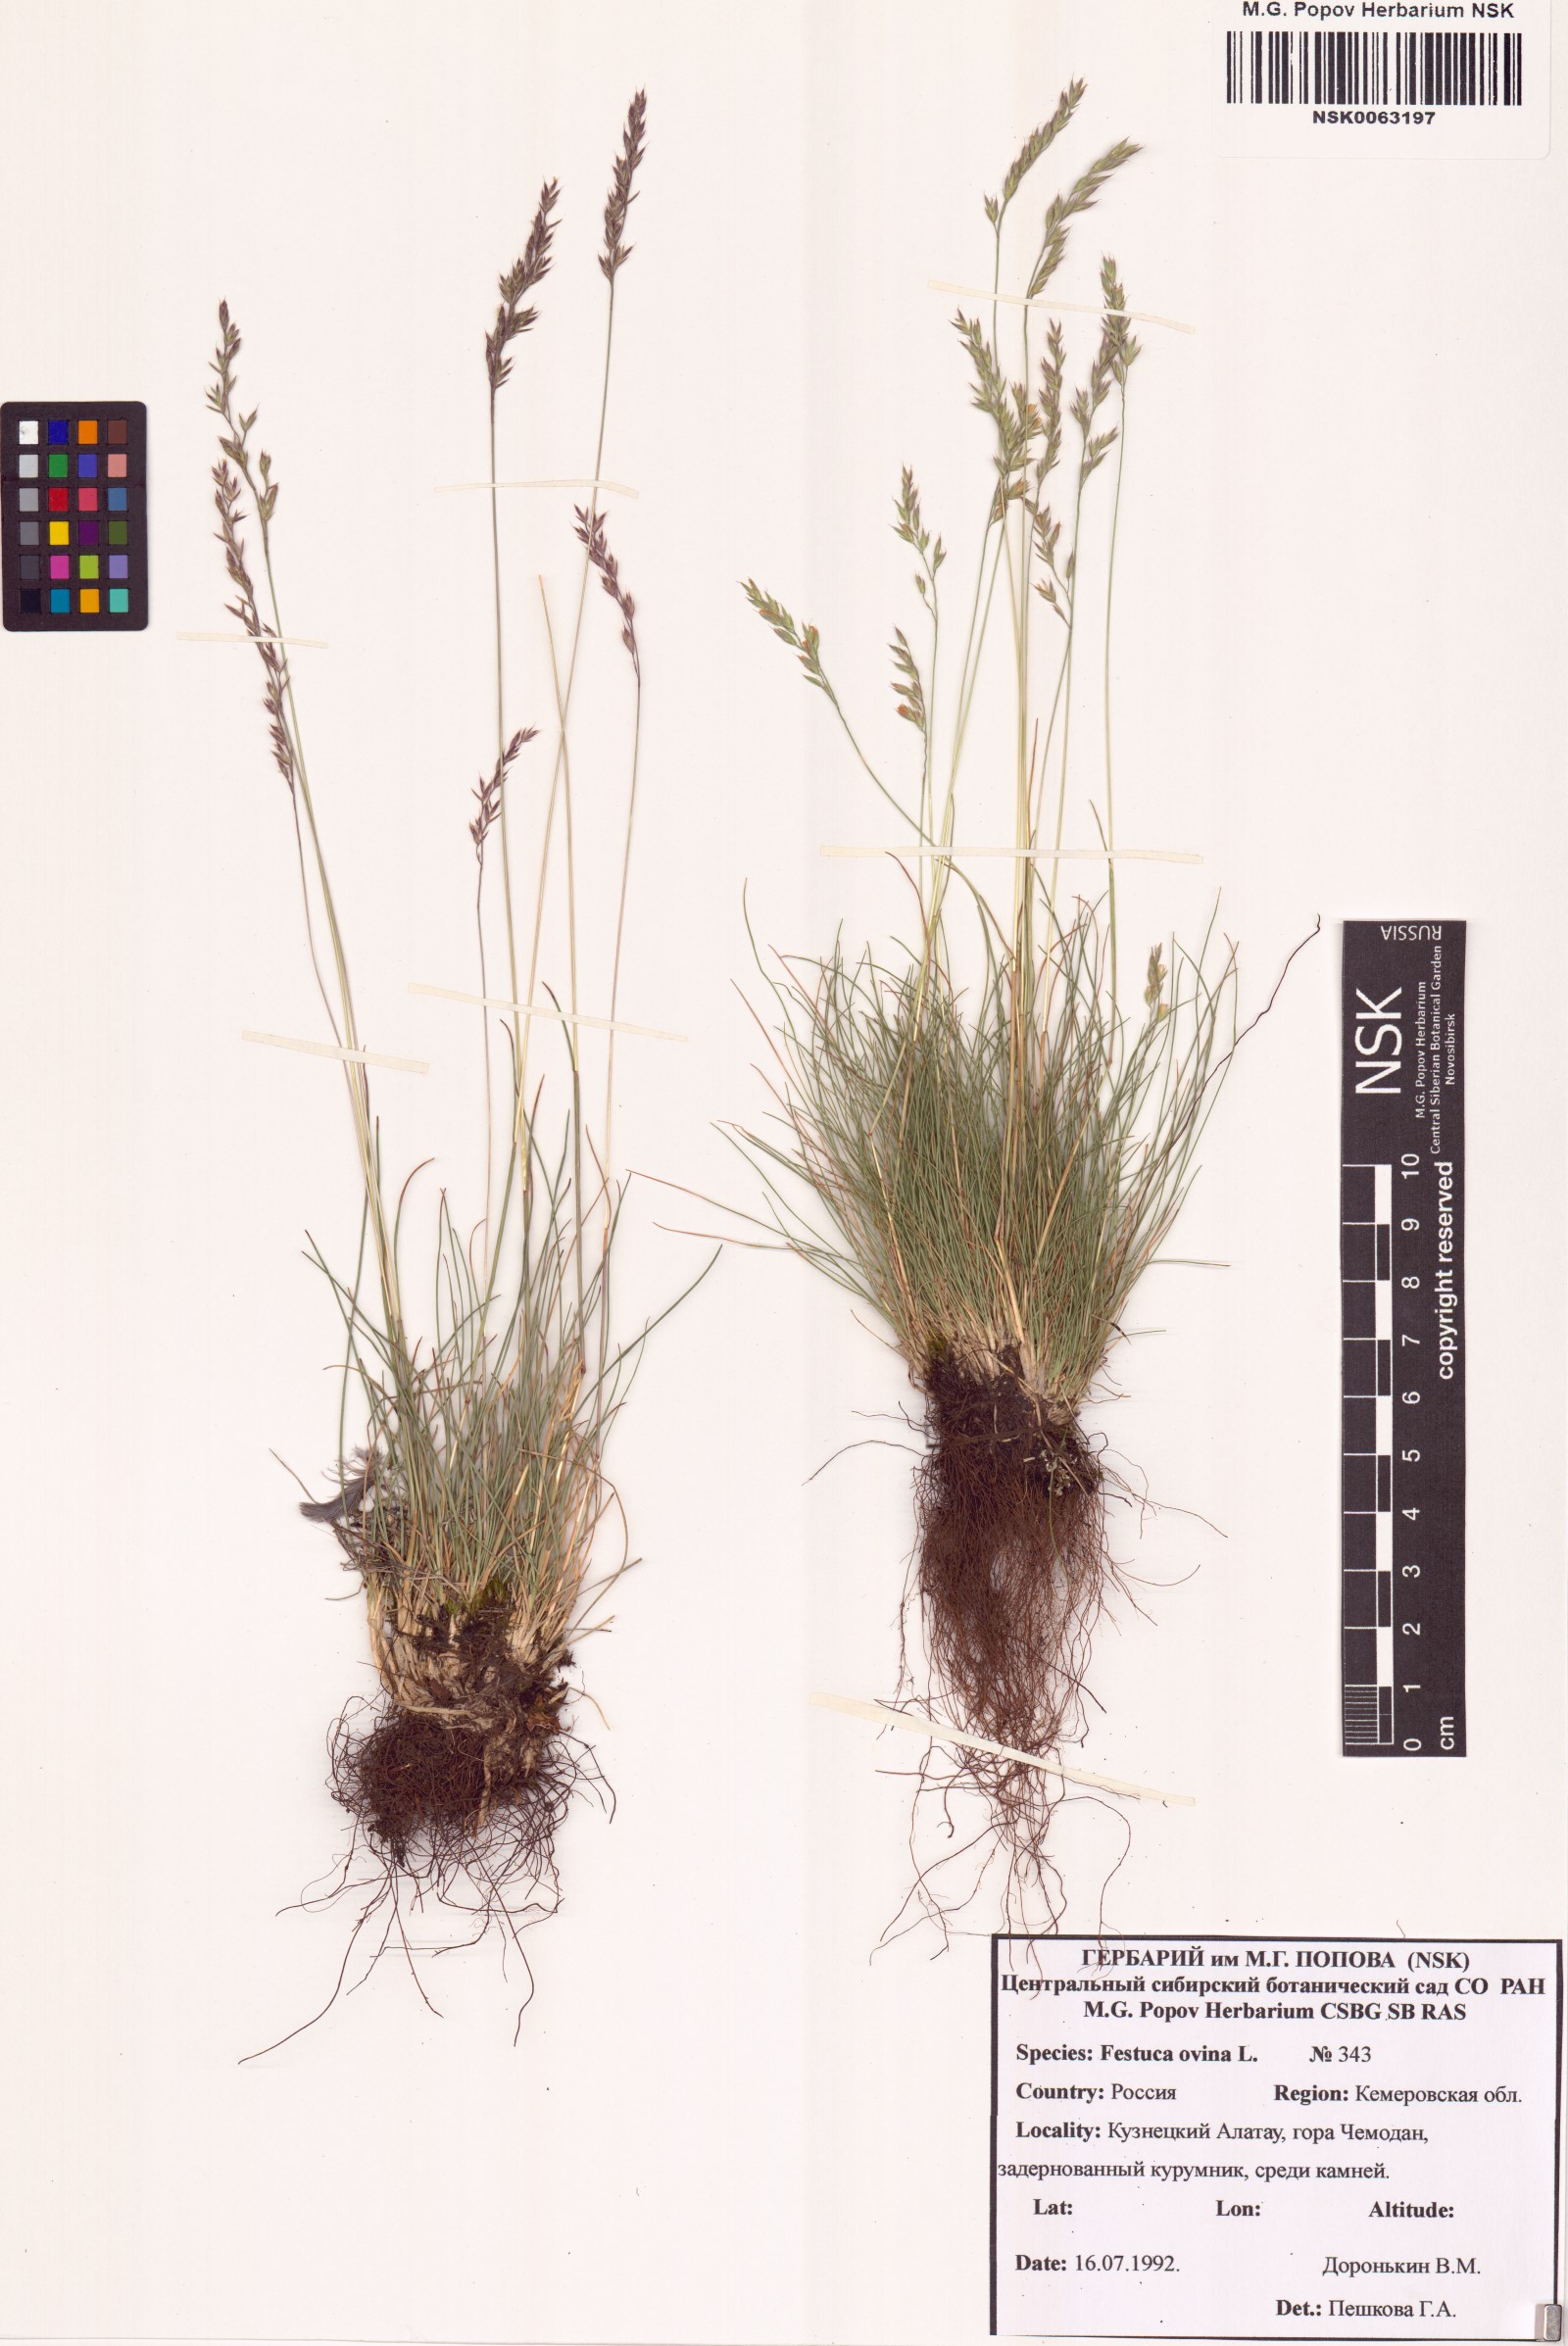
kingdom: Plantae
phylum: Tracheophyta
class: Liliopsida
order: Poales
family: Poaceae
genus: Festuca
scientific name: Festuca ovina
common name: Sheep fescue
